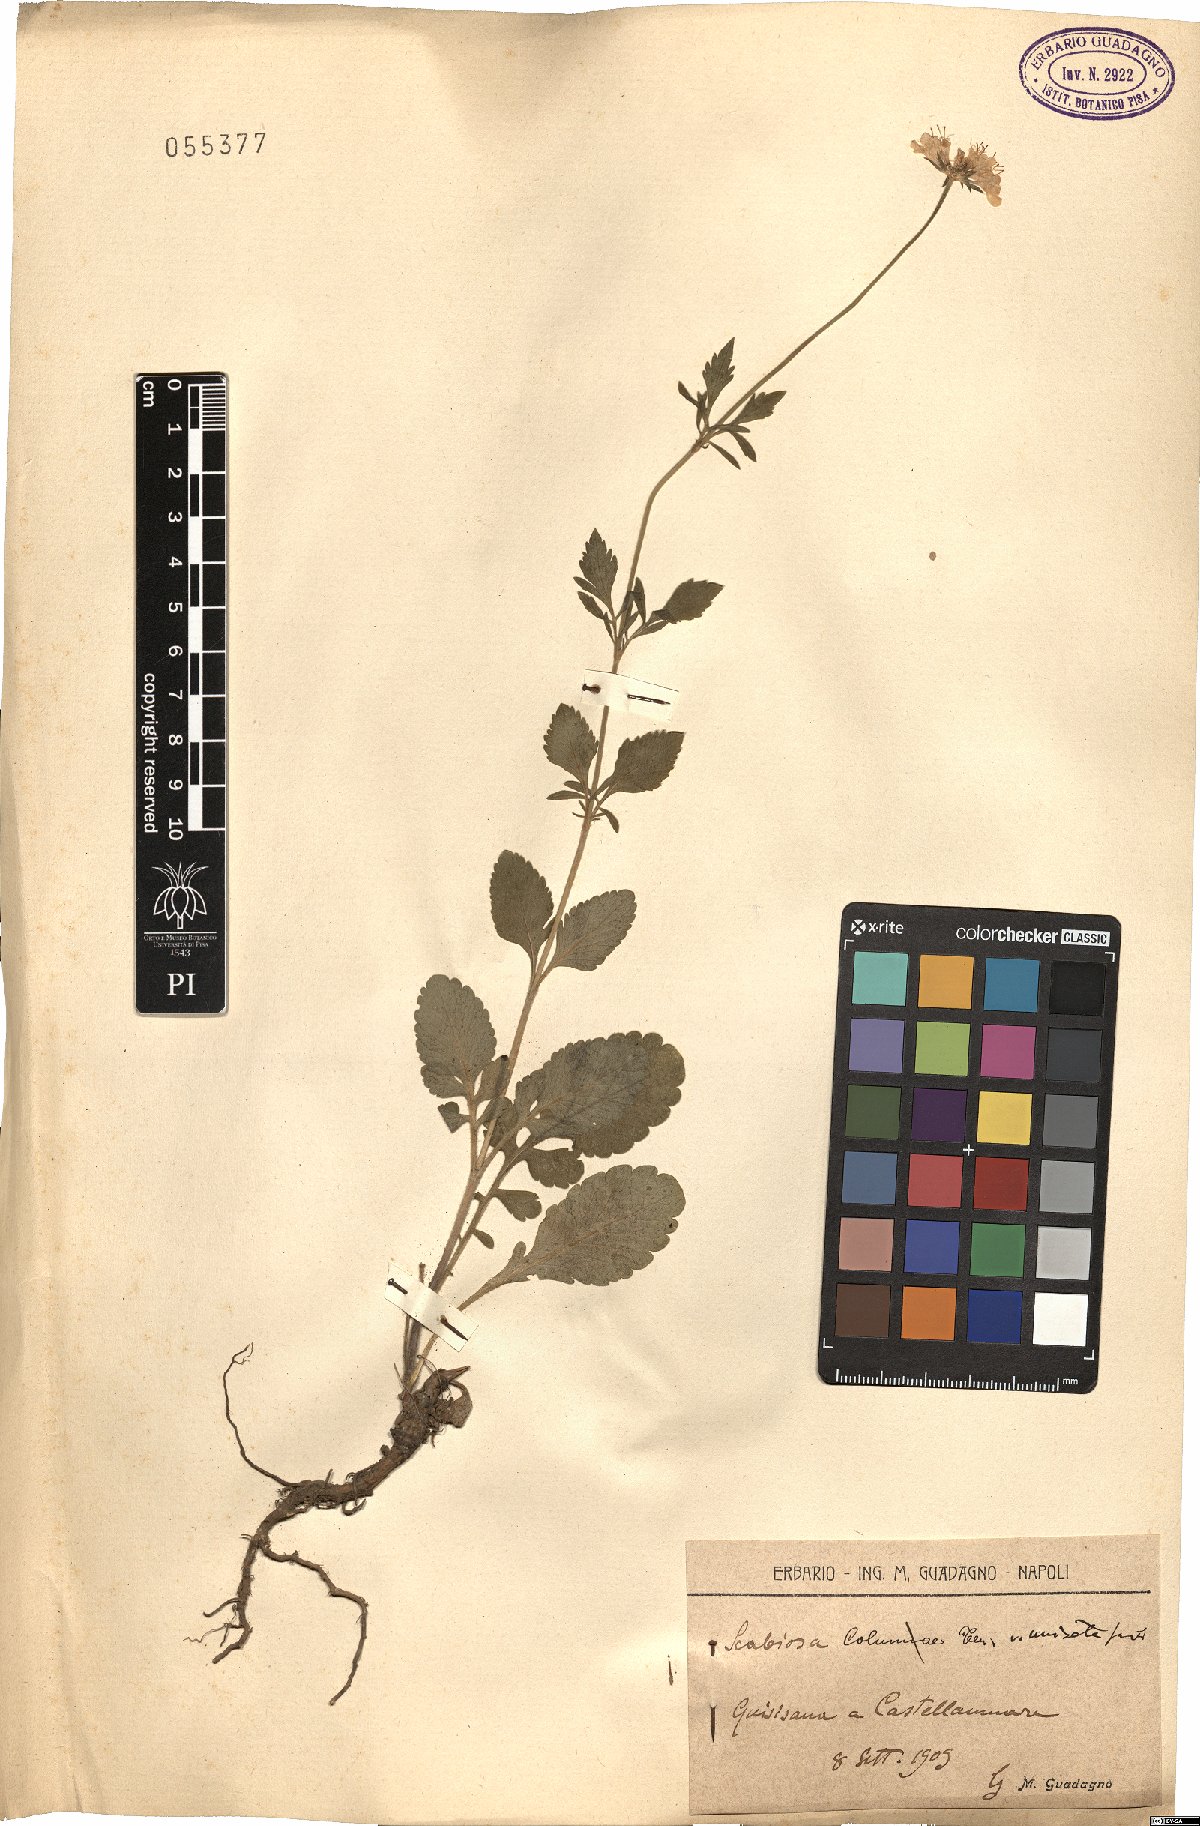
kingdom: Plantae
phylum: Tracheophyta
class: Magnoliopsida
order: Dipsacales
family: Caprifoliaceae
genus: Scabiosa
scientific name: Scabiosa columbaria
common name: Small scabious
